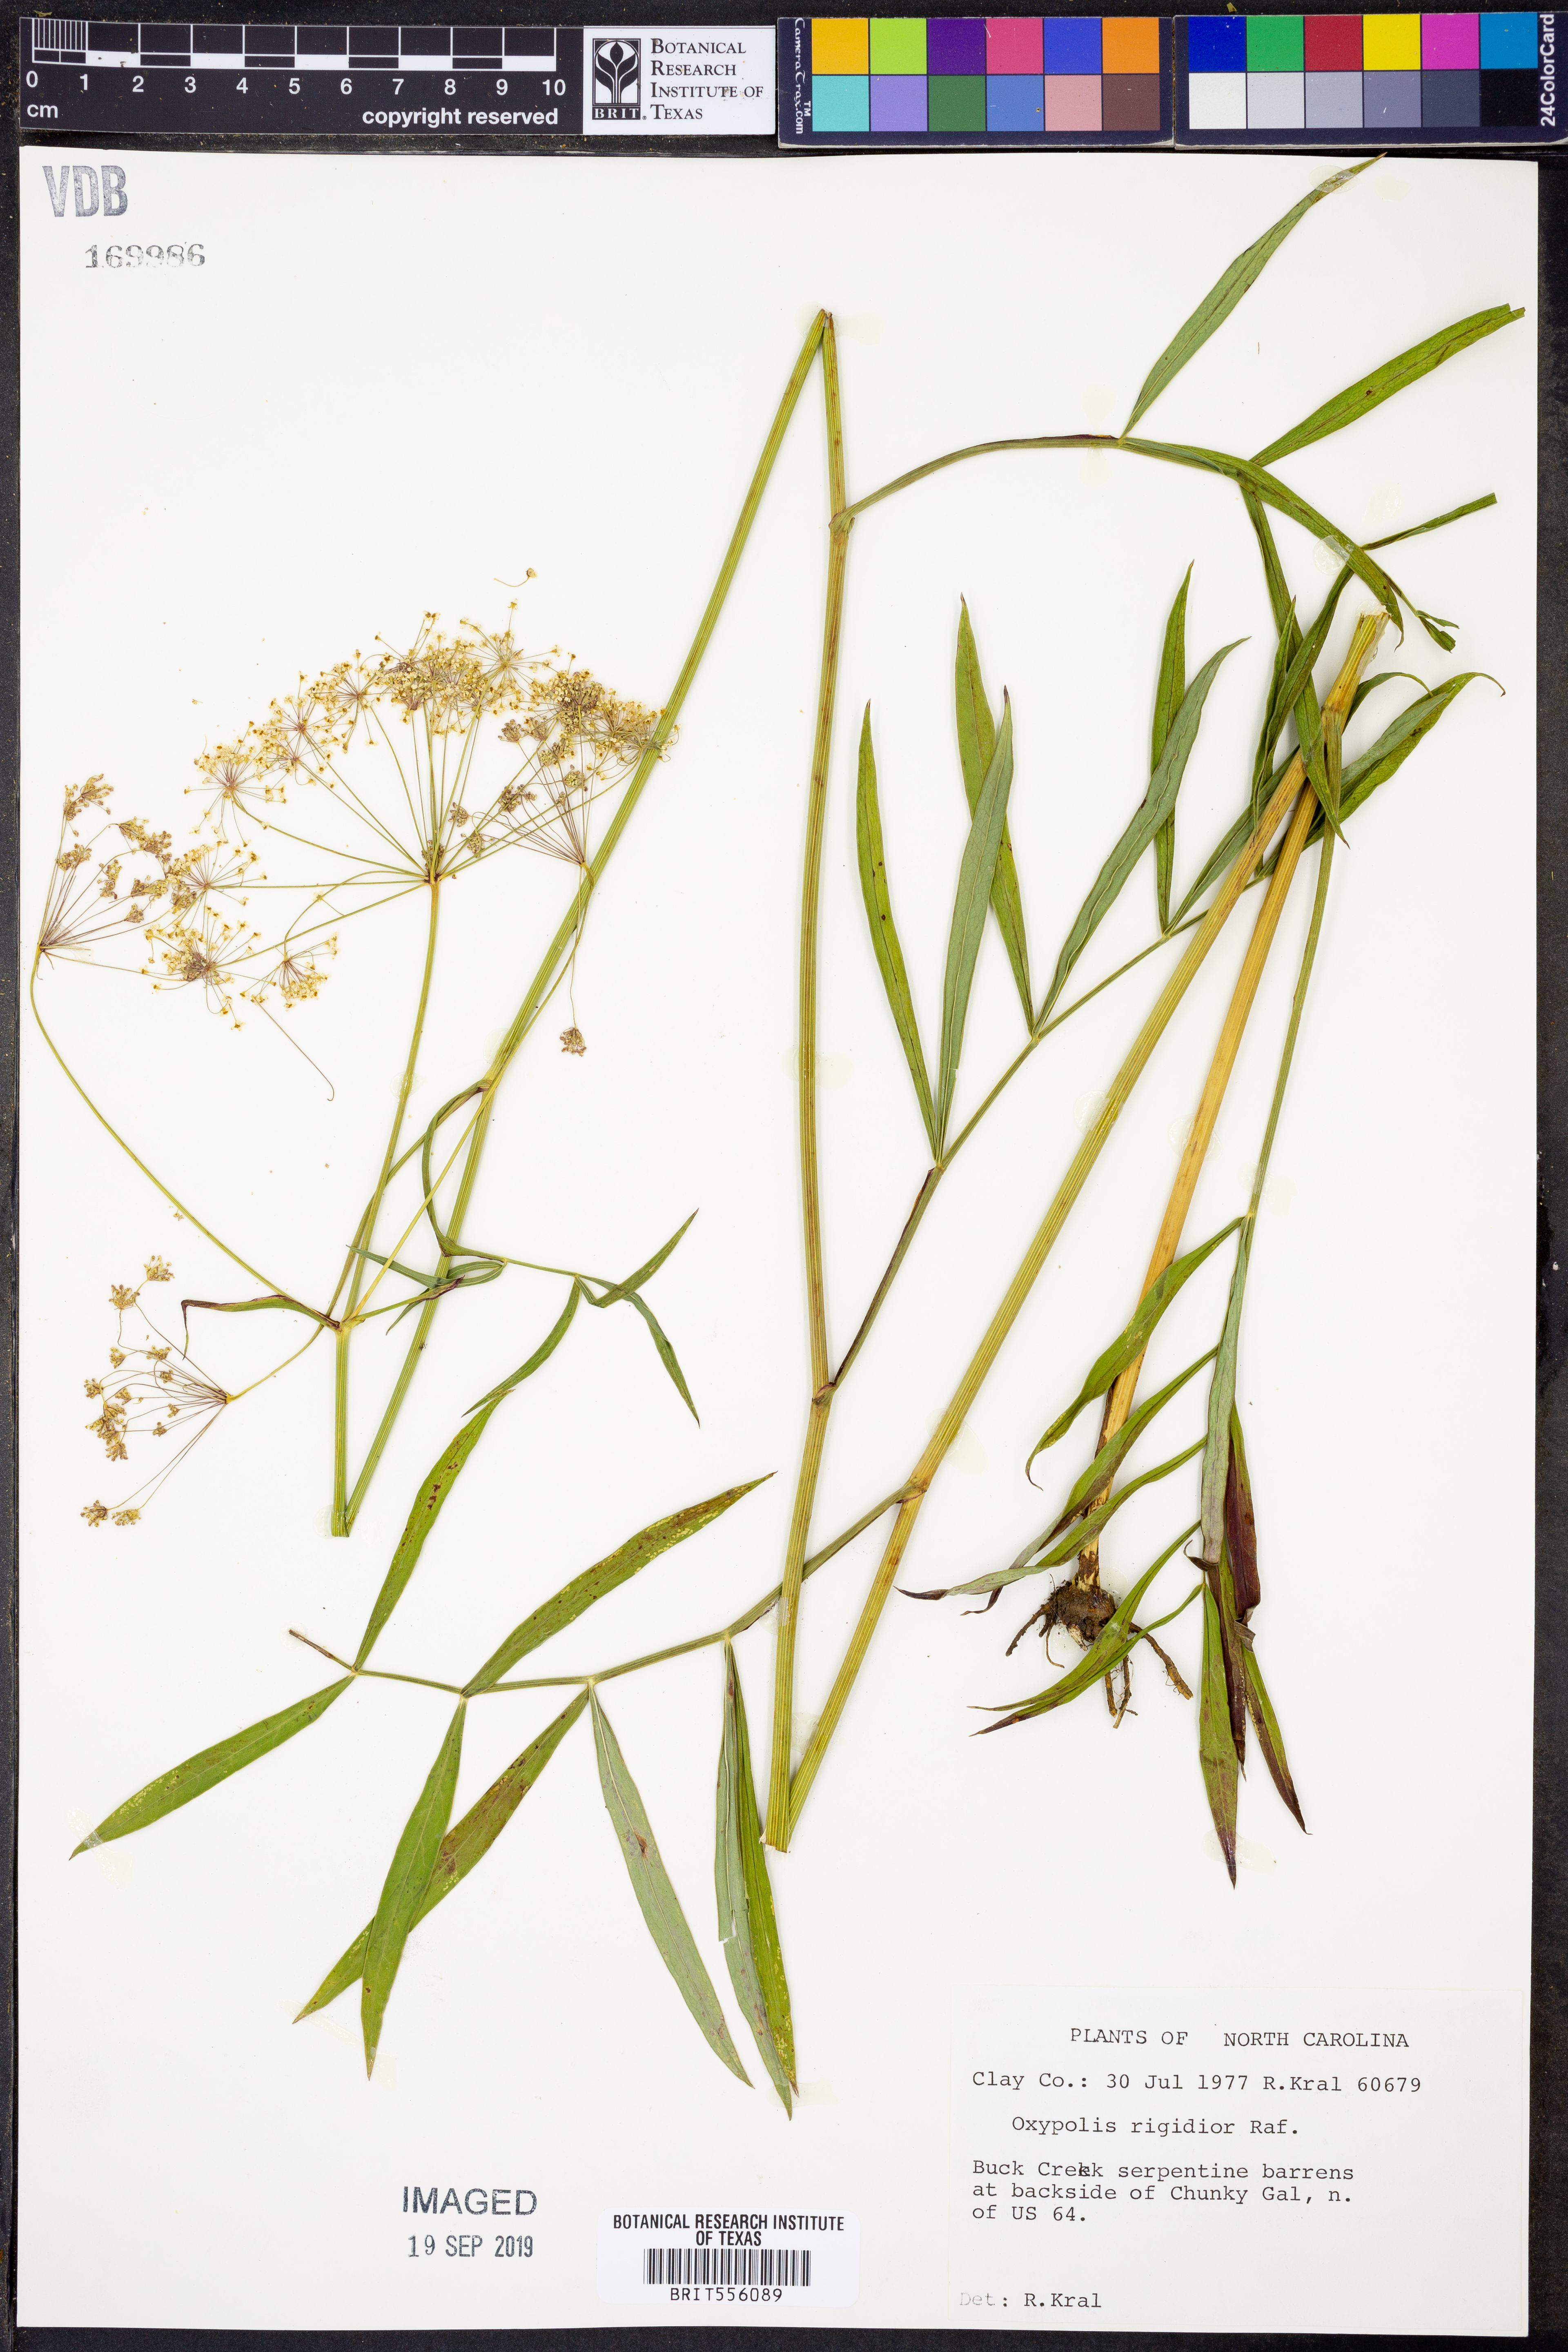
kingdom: Plantae
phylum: Tracheophyta
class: Magnoliopsida
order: Apiales
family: Apiaceae
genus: Oxypolis
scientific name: Oxypolis rigidior
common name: Cowbane
